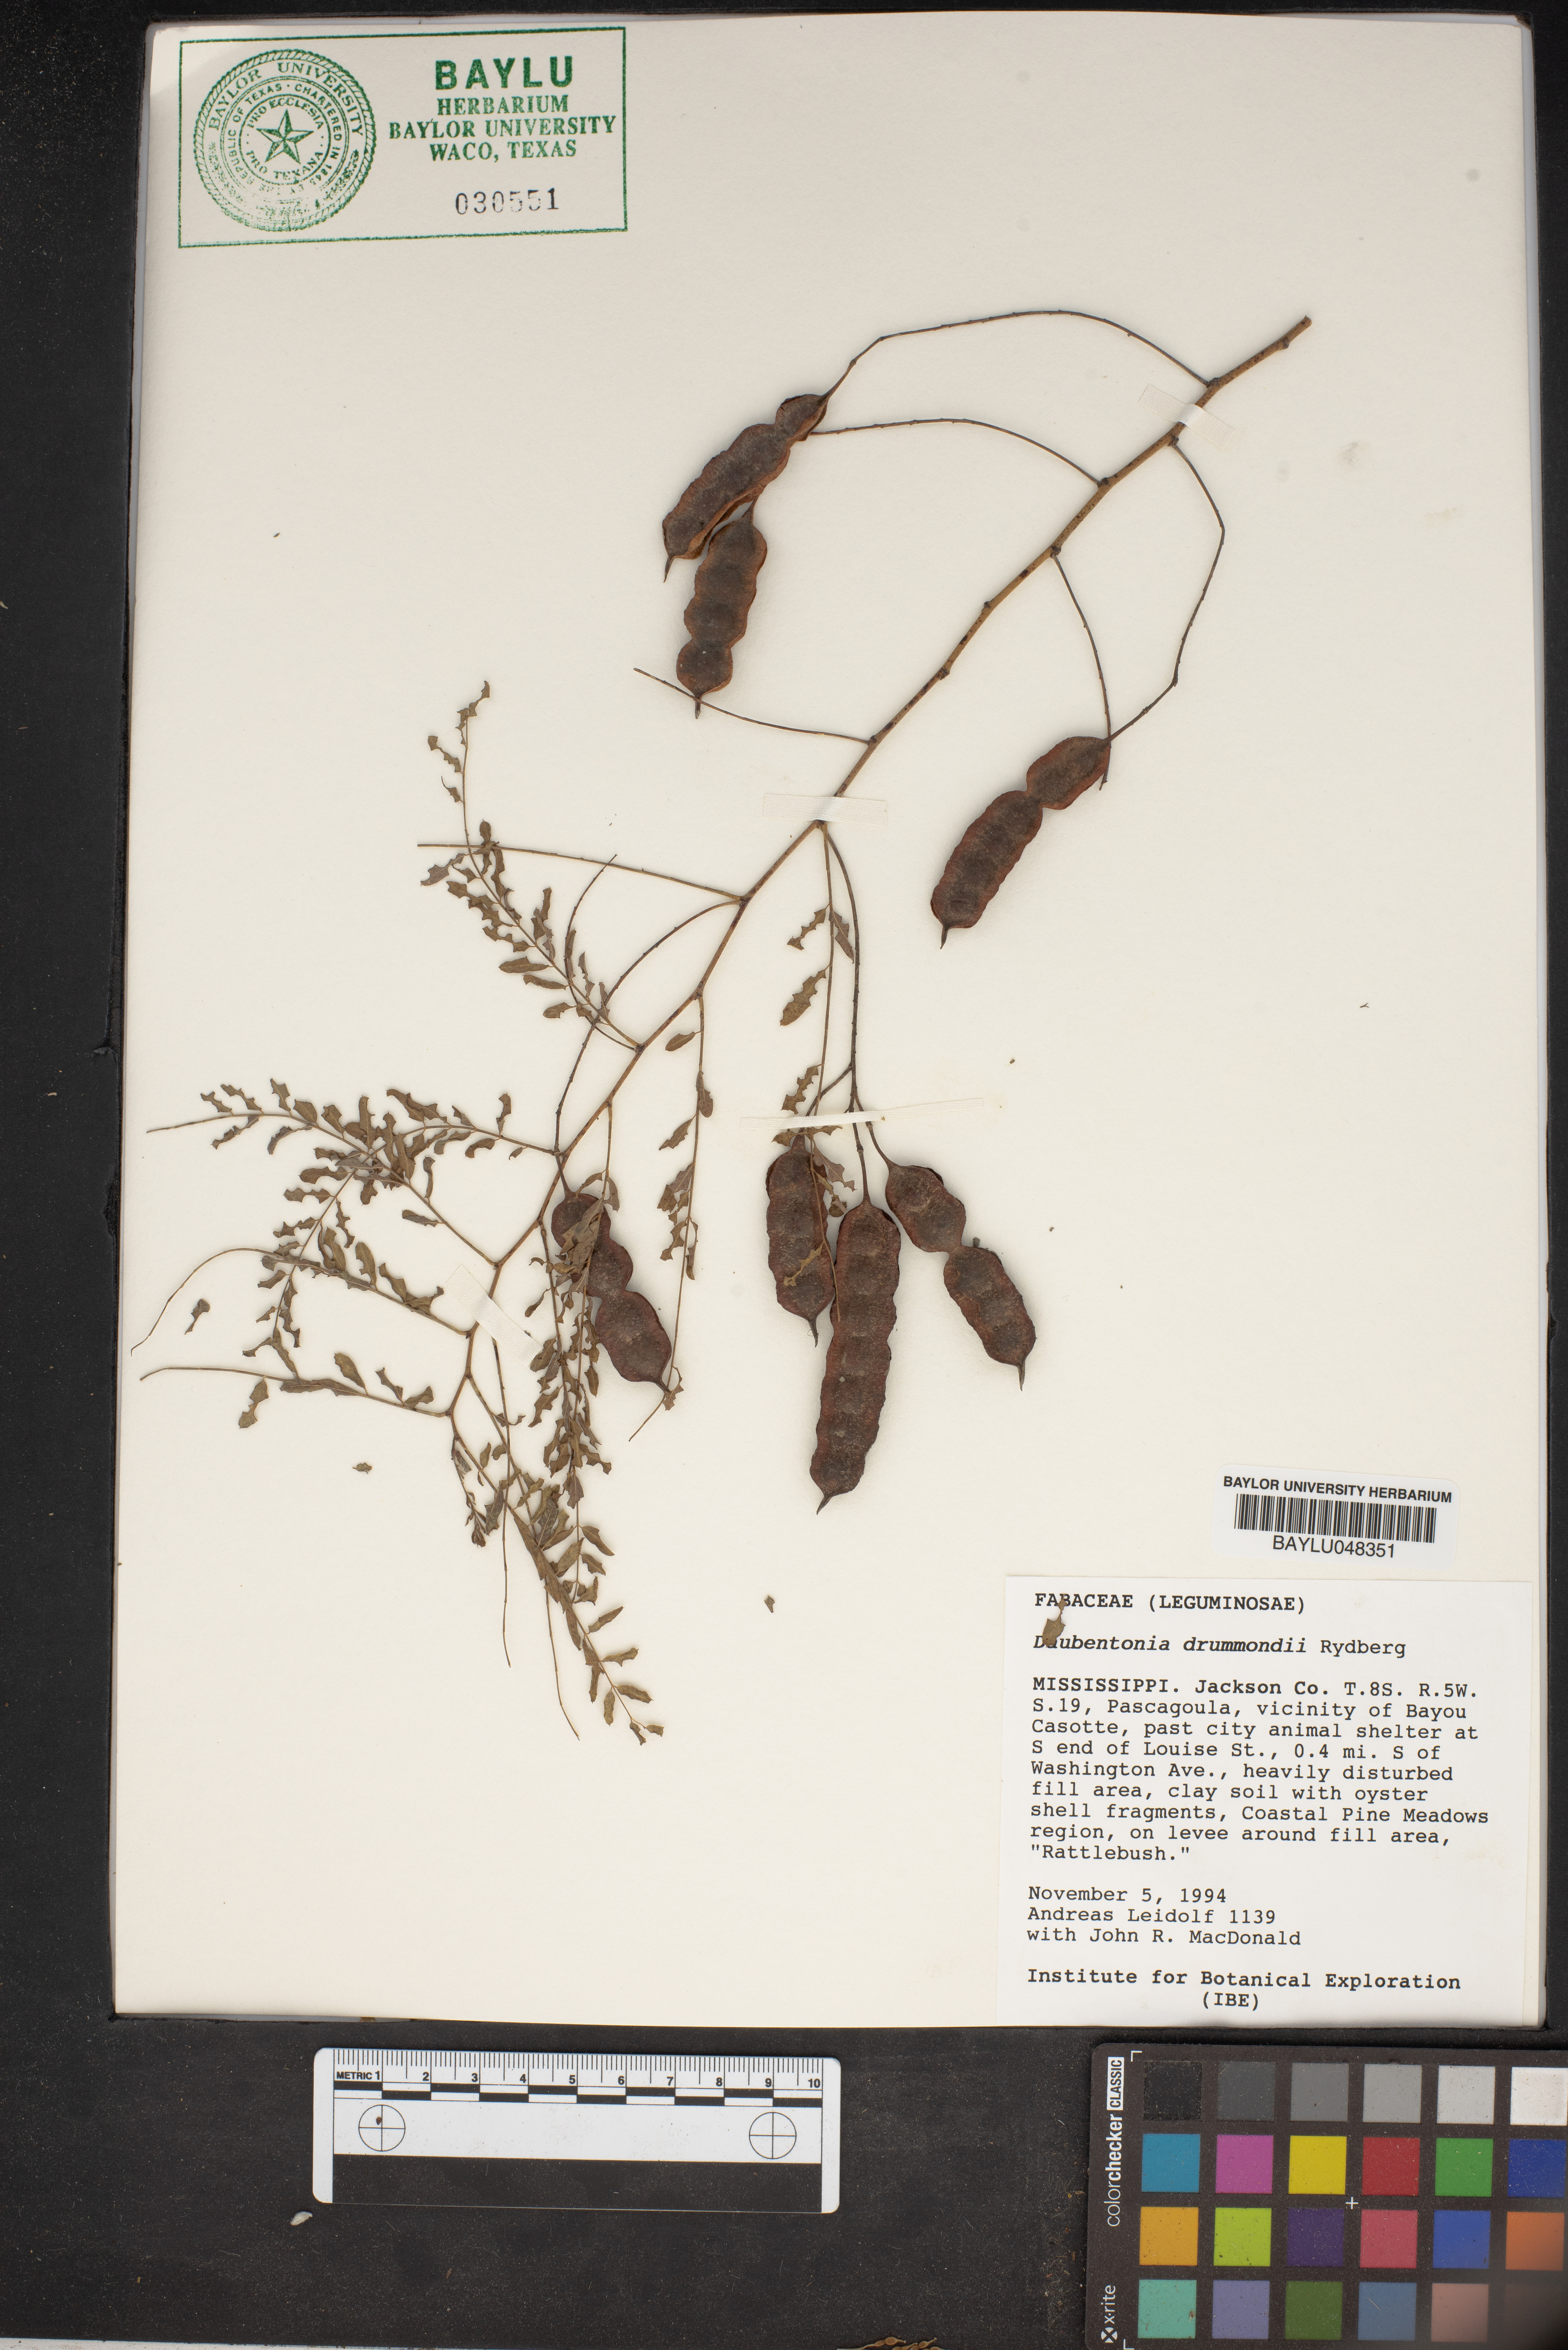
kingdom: Plantae
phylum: Tracheophyta
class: Magnoliopsida
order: Fabales
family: Fabaceae
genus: Sesbania
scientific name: Sesbania drummondii
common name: Poison-bean
